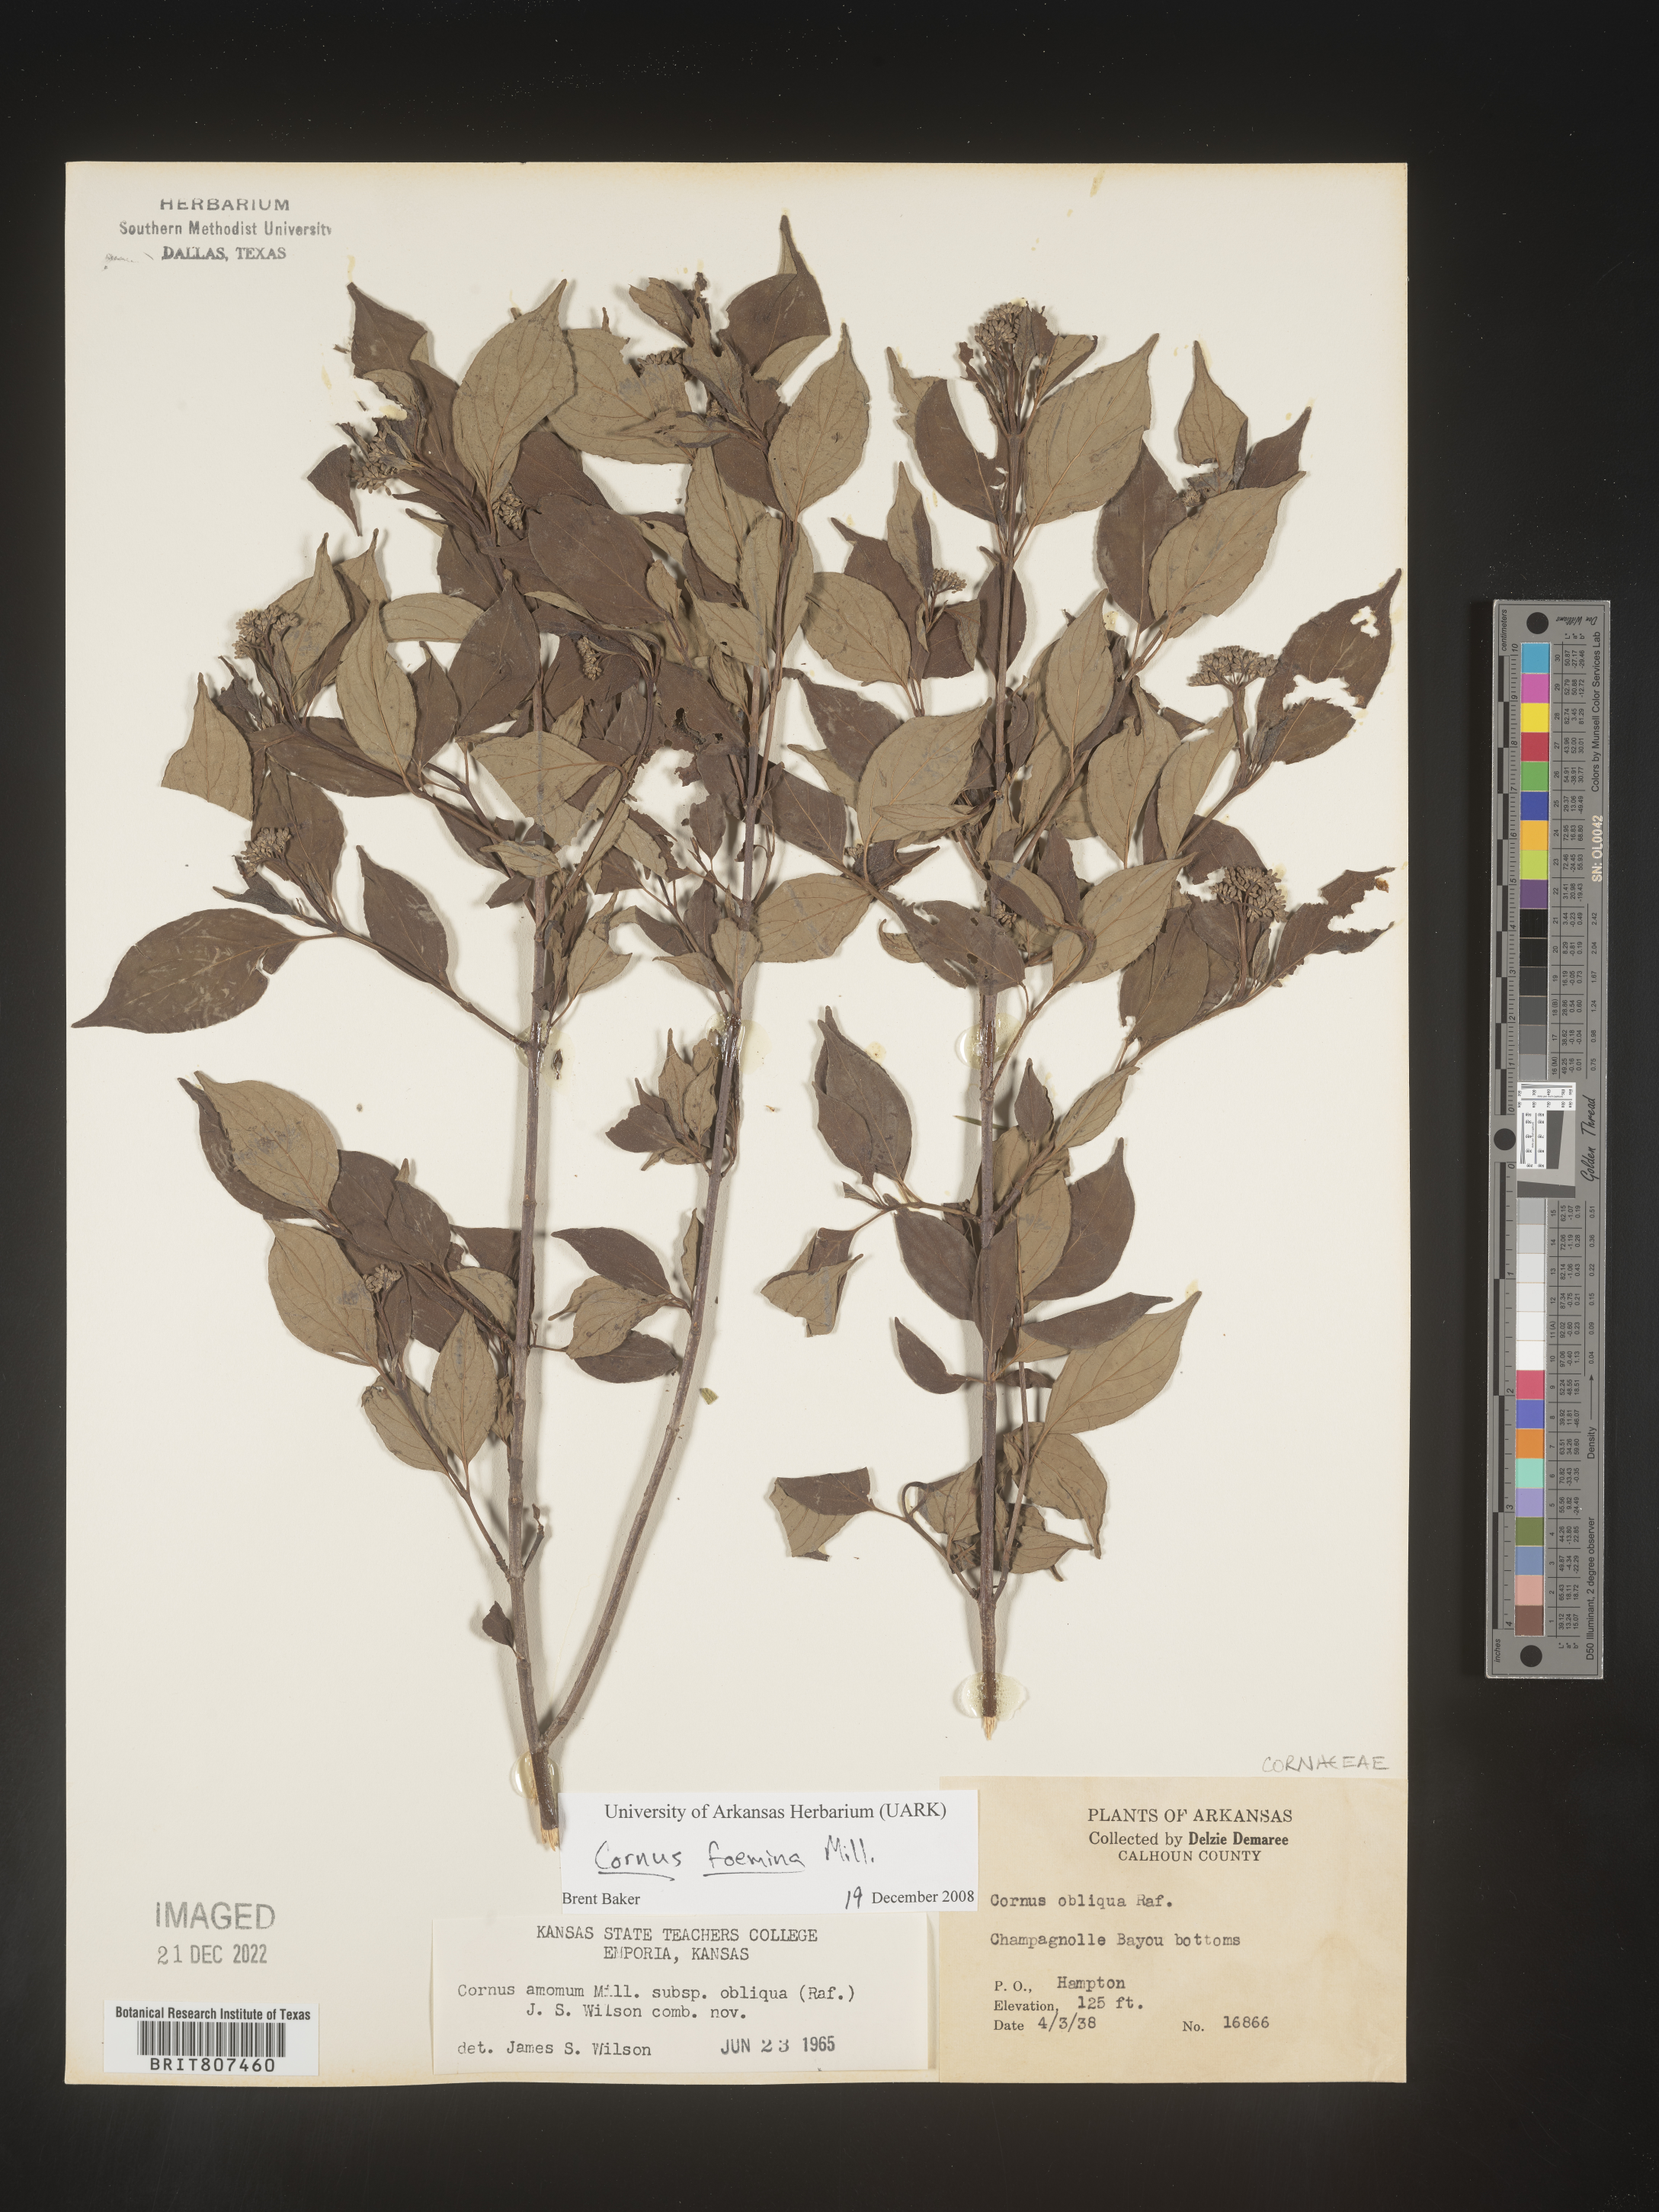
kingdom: Plantae
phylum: Tracheophyta
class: Magnoliopsida
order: Cornales
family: Cornaceae
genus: Cornus
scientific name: Cornus foemina
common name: Swamp dogwood
